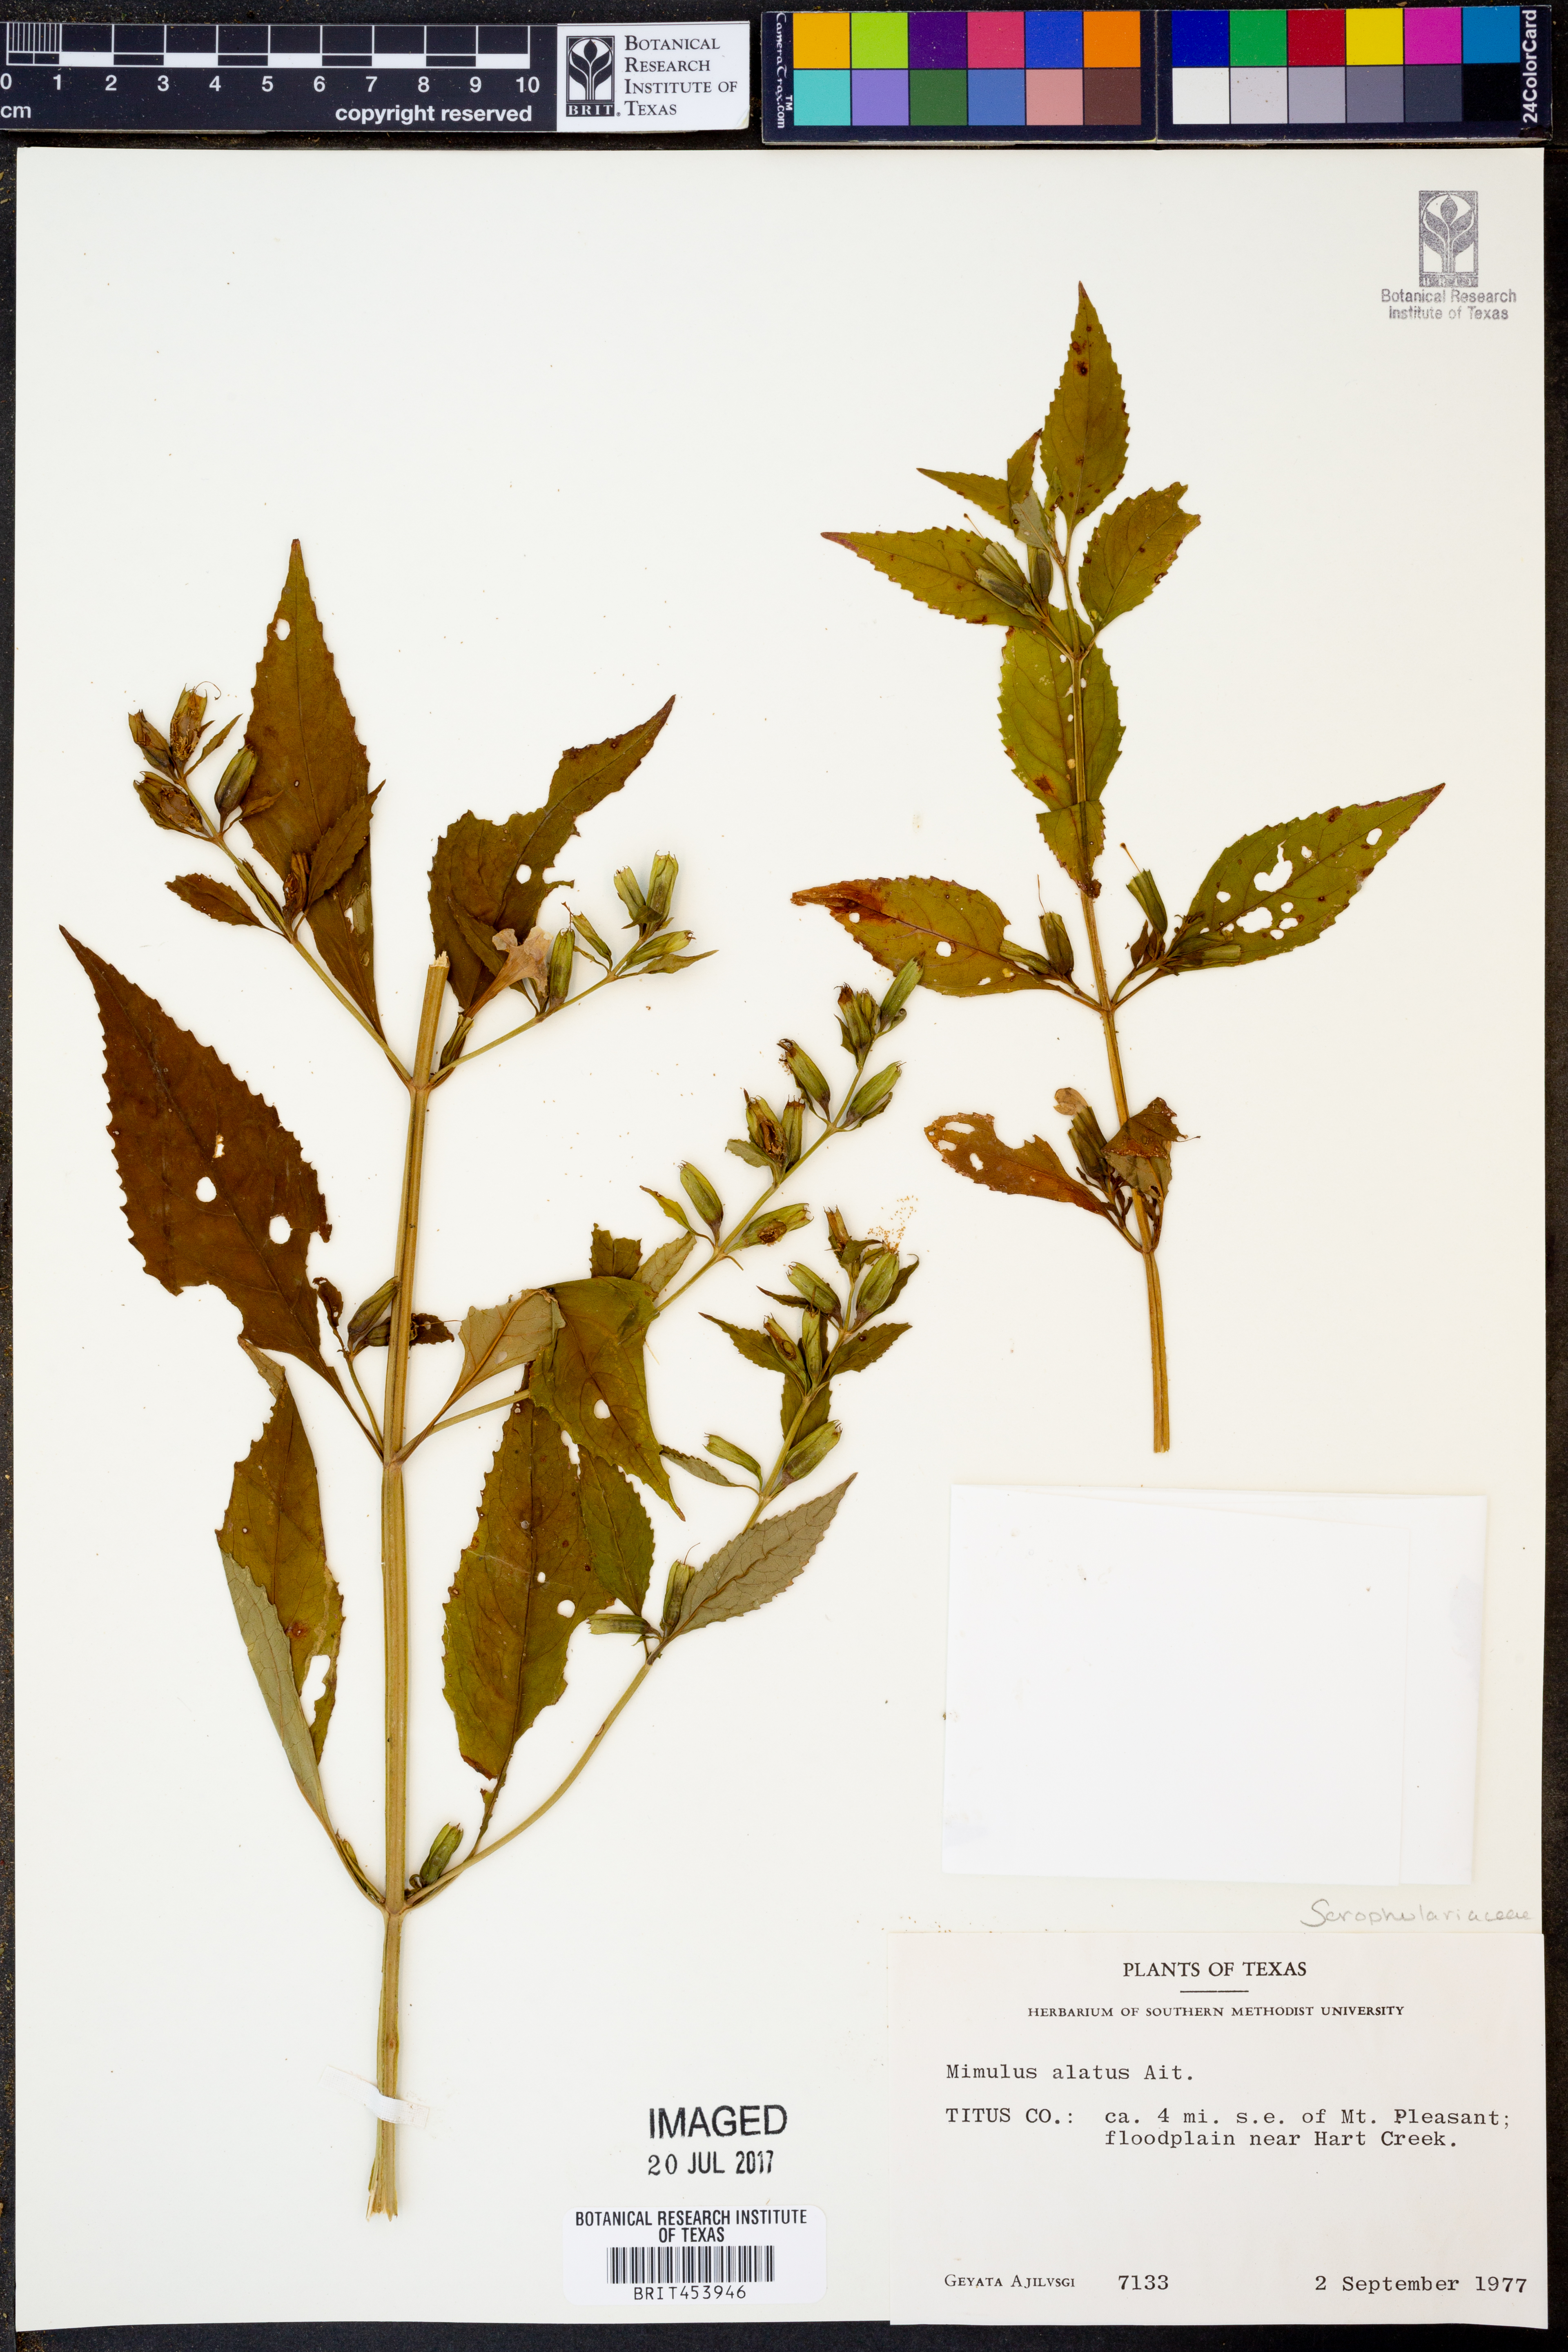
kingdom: Plantae
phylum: Tracheophyta
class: Magnoliopsida
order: Lamiales
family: Phrymaceae
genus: Mimulus
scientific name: Mimulus alatus
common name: Sharp-wing monkey-flower
